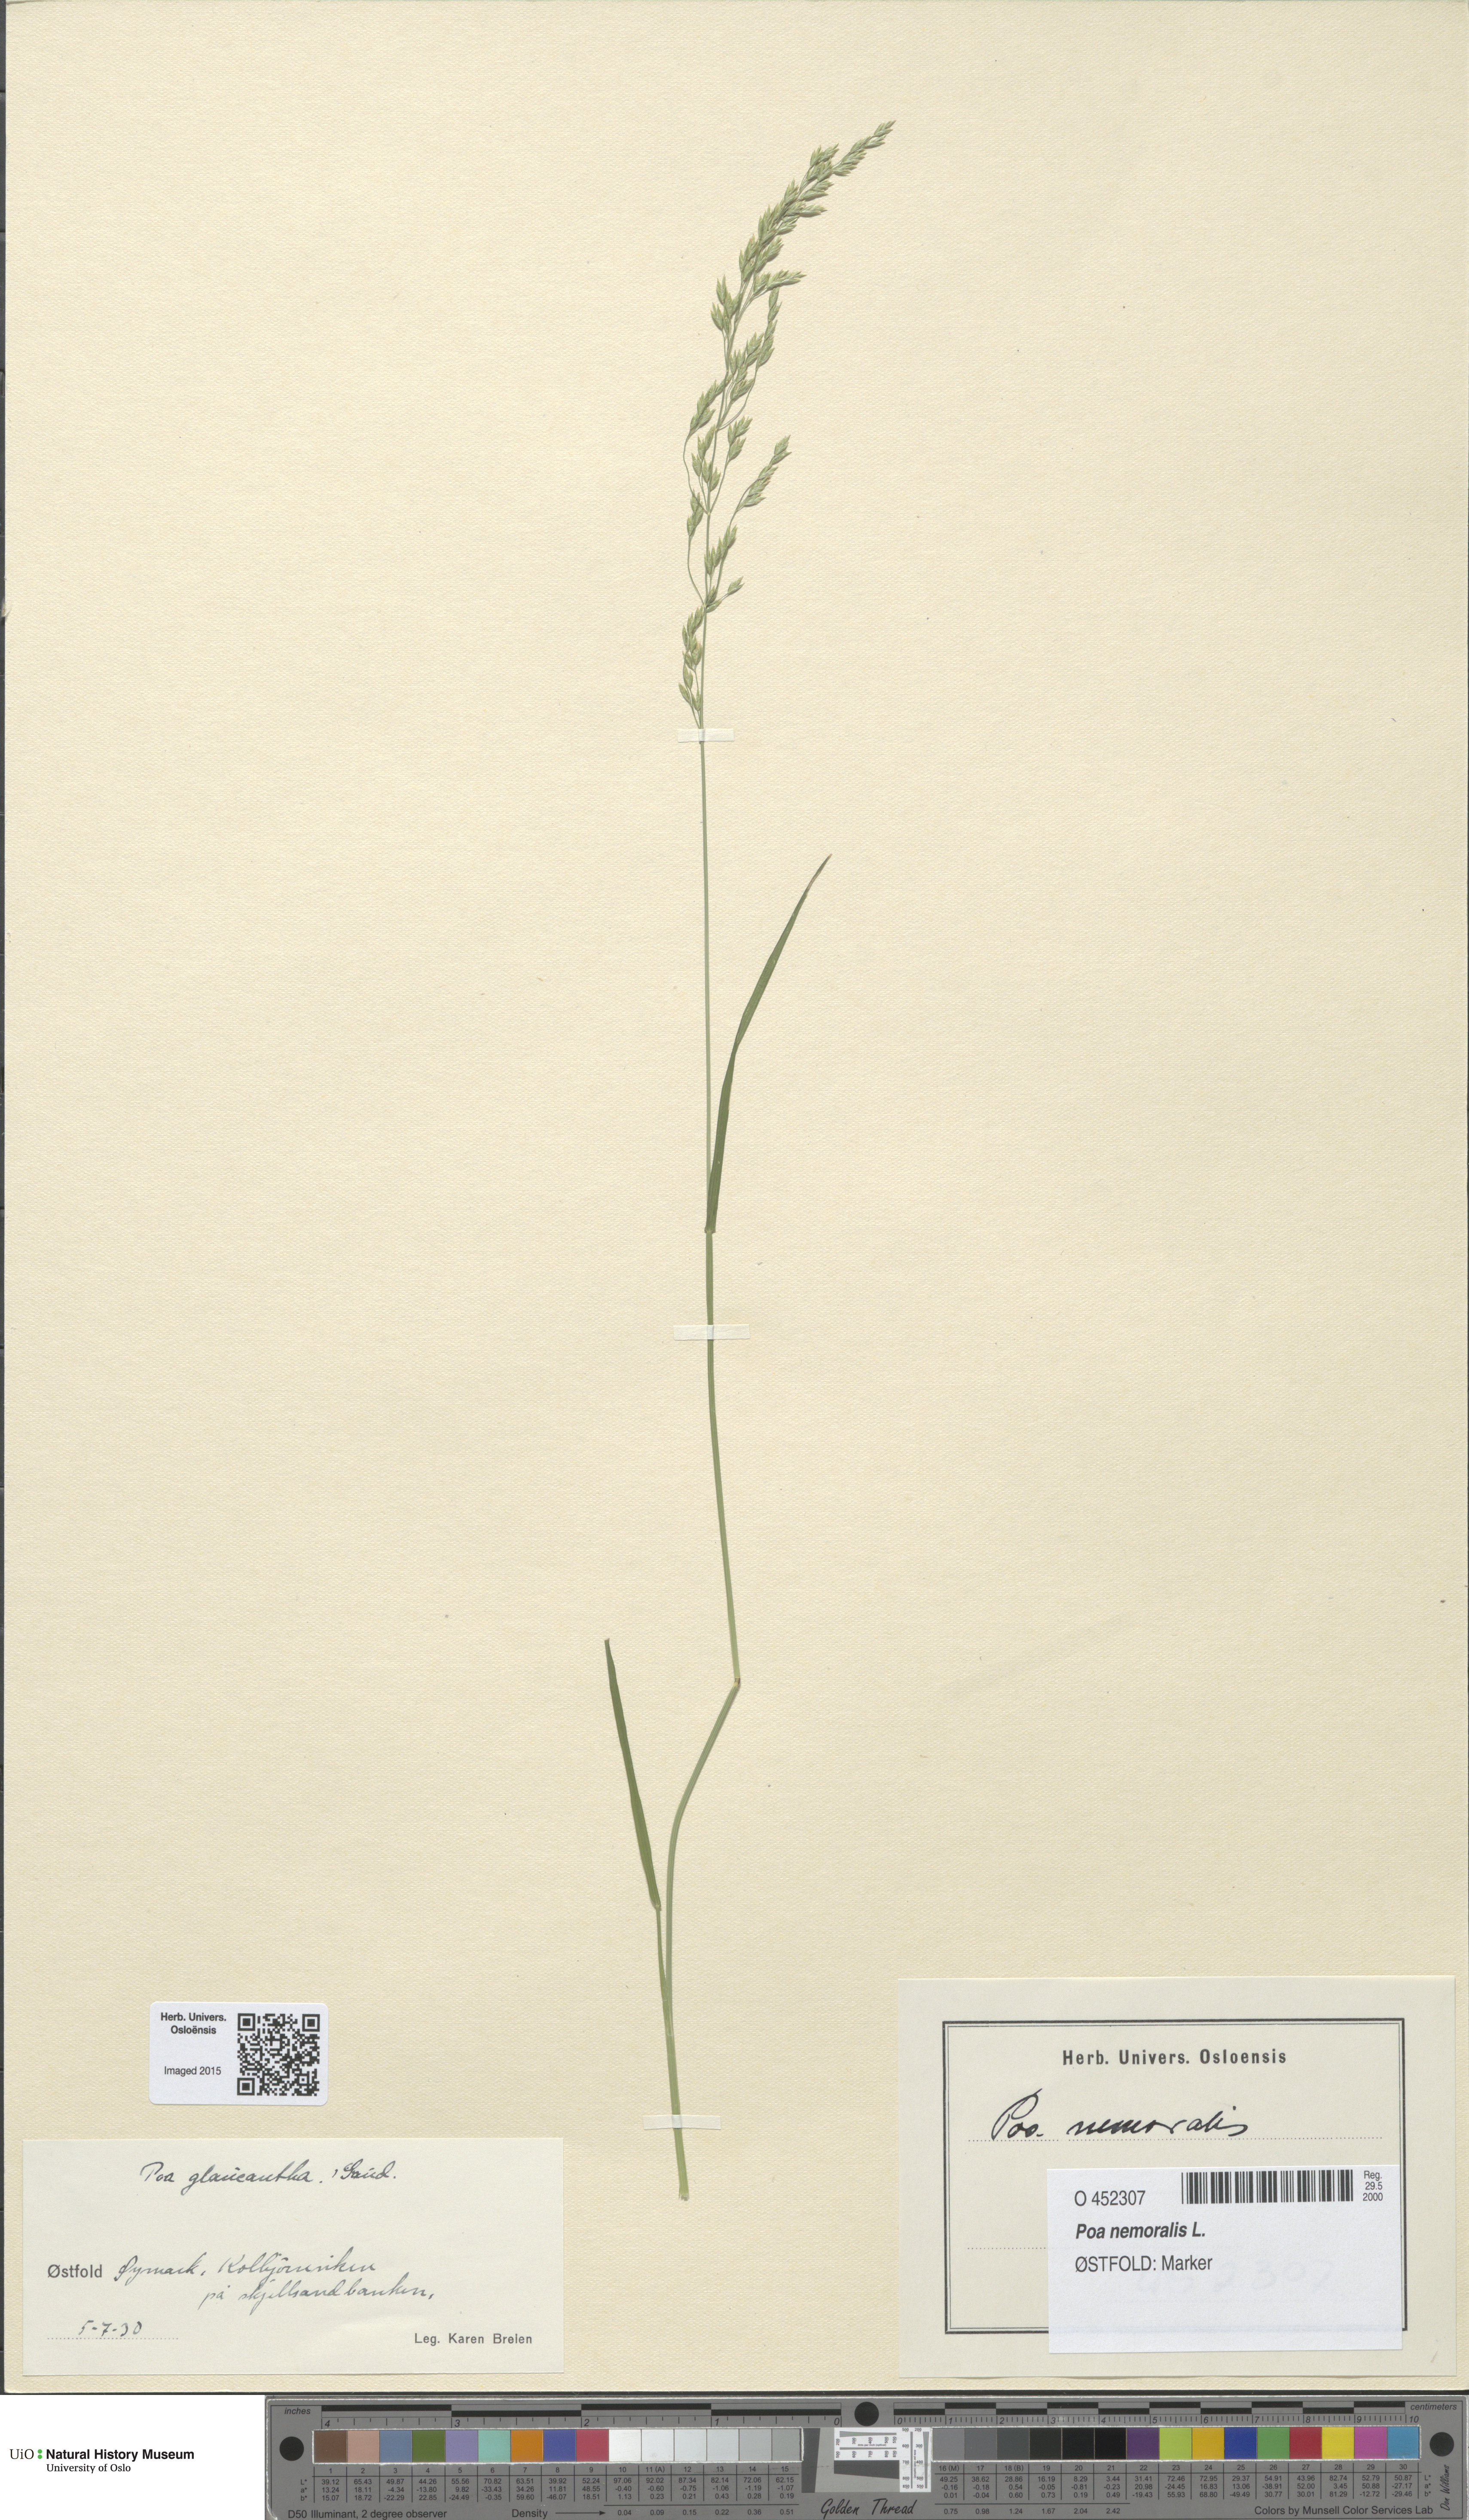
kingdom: Plantae
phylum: Tracheophyta
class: Liliopsida
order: Poales
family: Poaceae
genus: Poa
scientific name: Poa nemoralis
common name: Wood bluegrass
